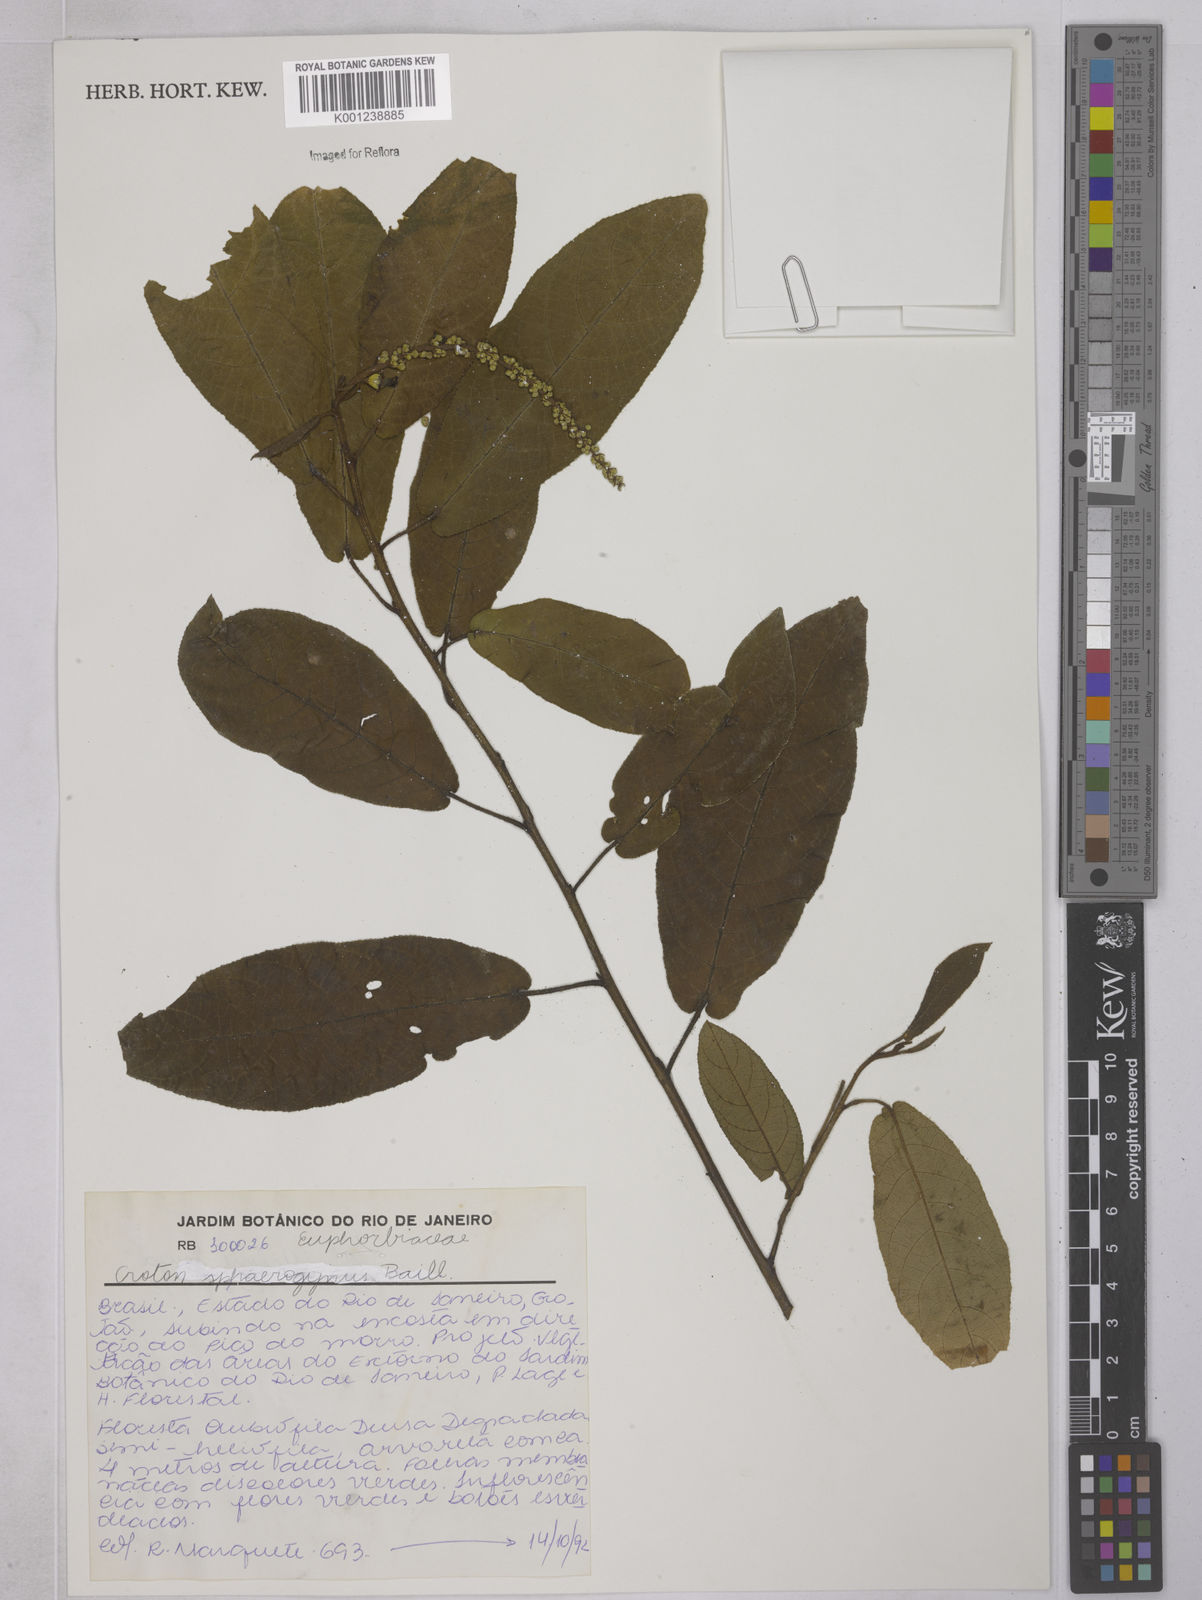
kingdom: Plantae
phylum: Tracheophyta
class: Magnoliopsida
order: Malpighiales
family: Euphorbiaceae
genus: Croton
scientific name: Croton sphaerogynus
